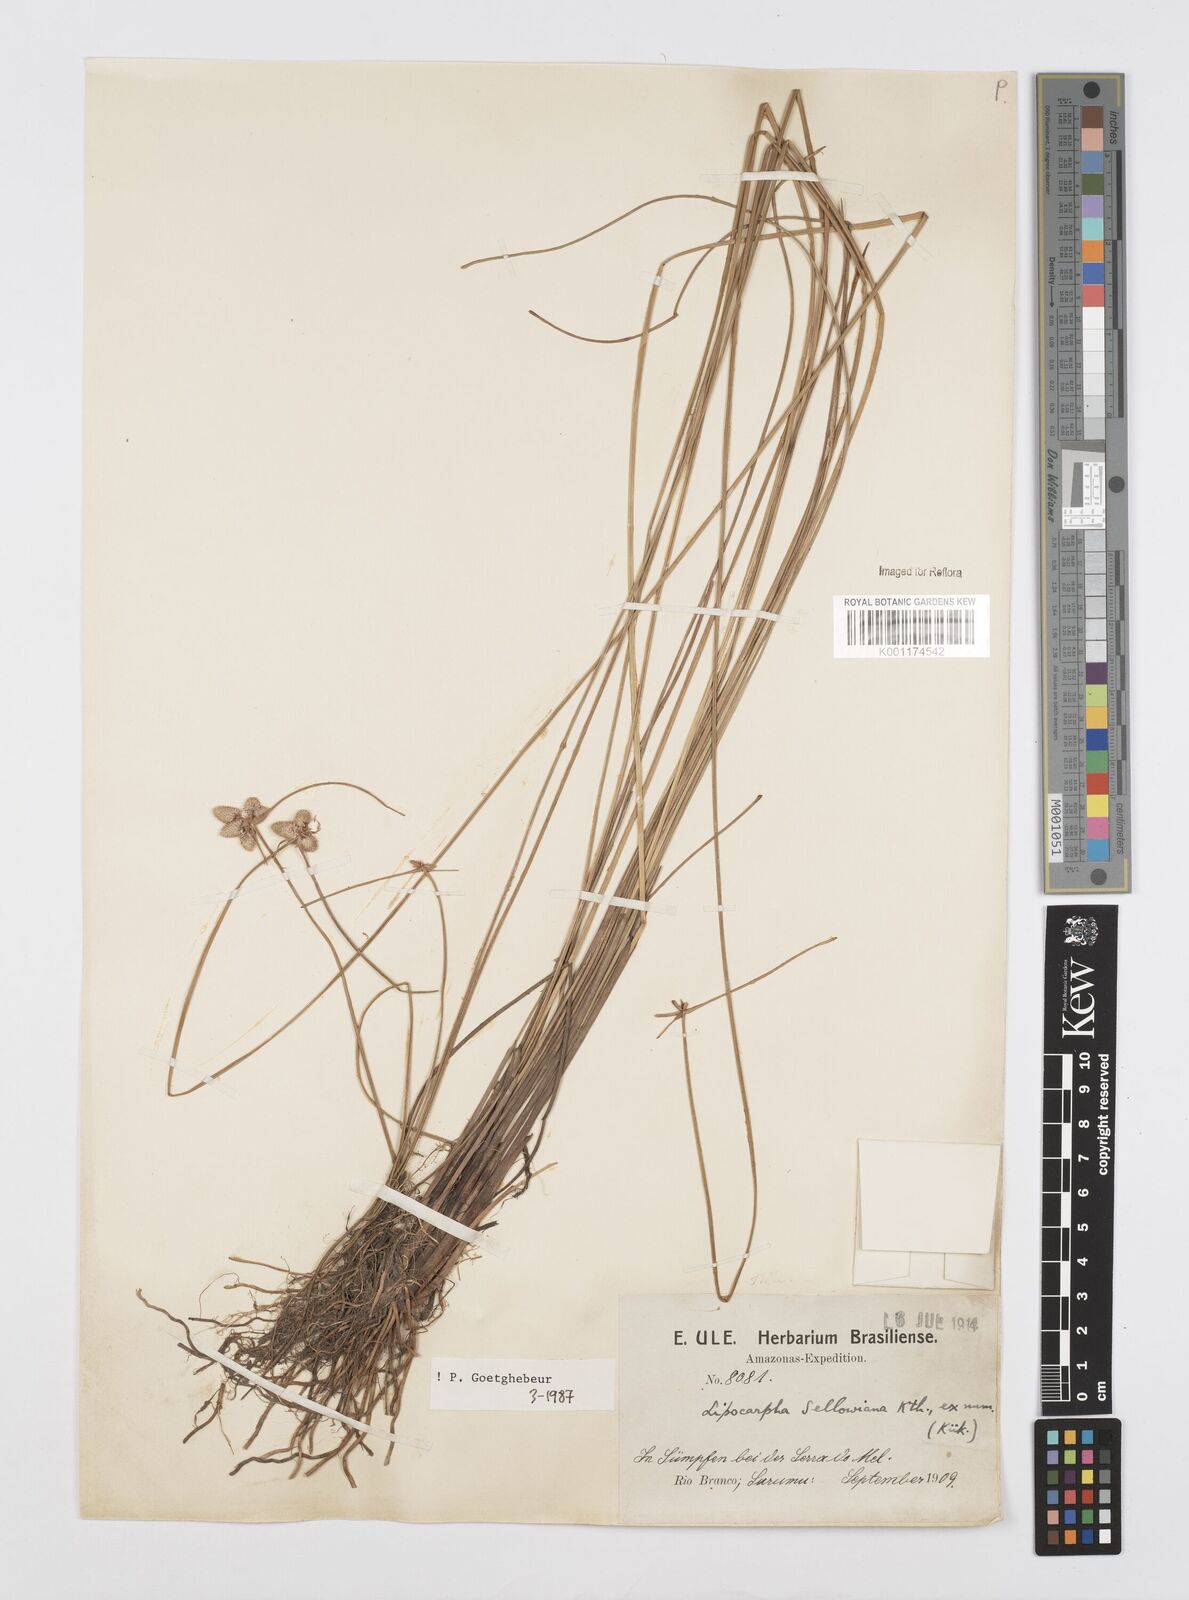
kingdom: Plantae
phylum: Tracheophyta
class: Liliopsida
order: Poales
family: Cyperaceae
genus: Cyperus
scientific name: Cyperus lanceolatus
